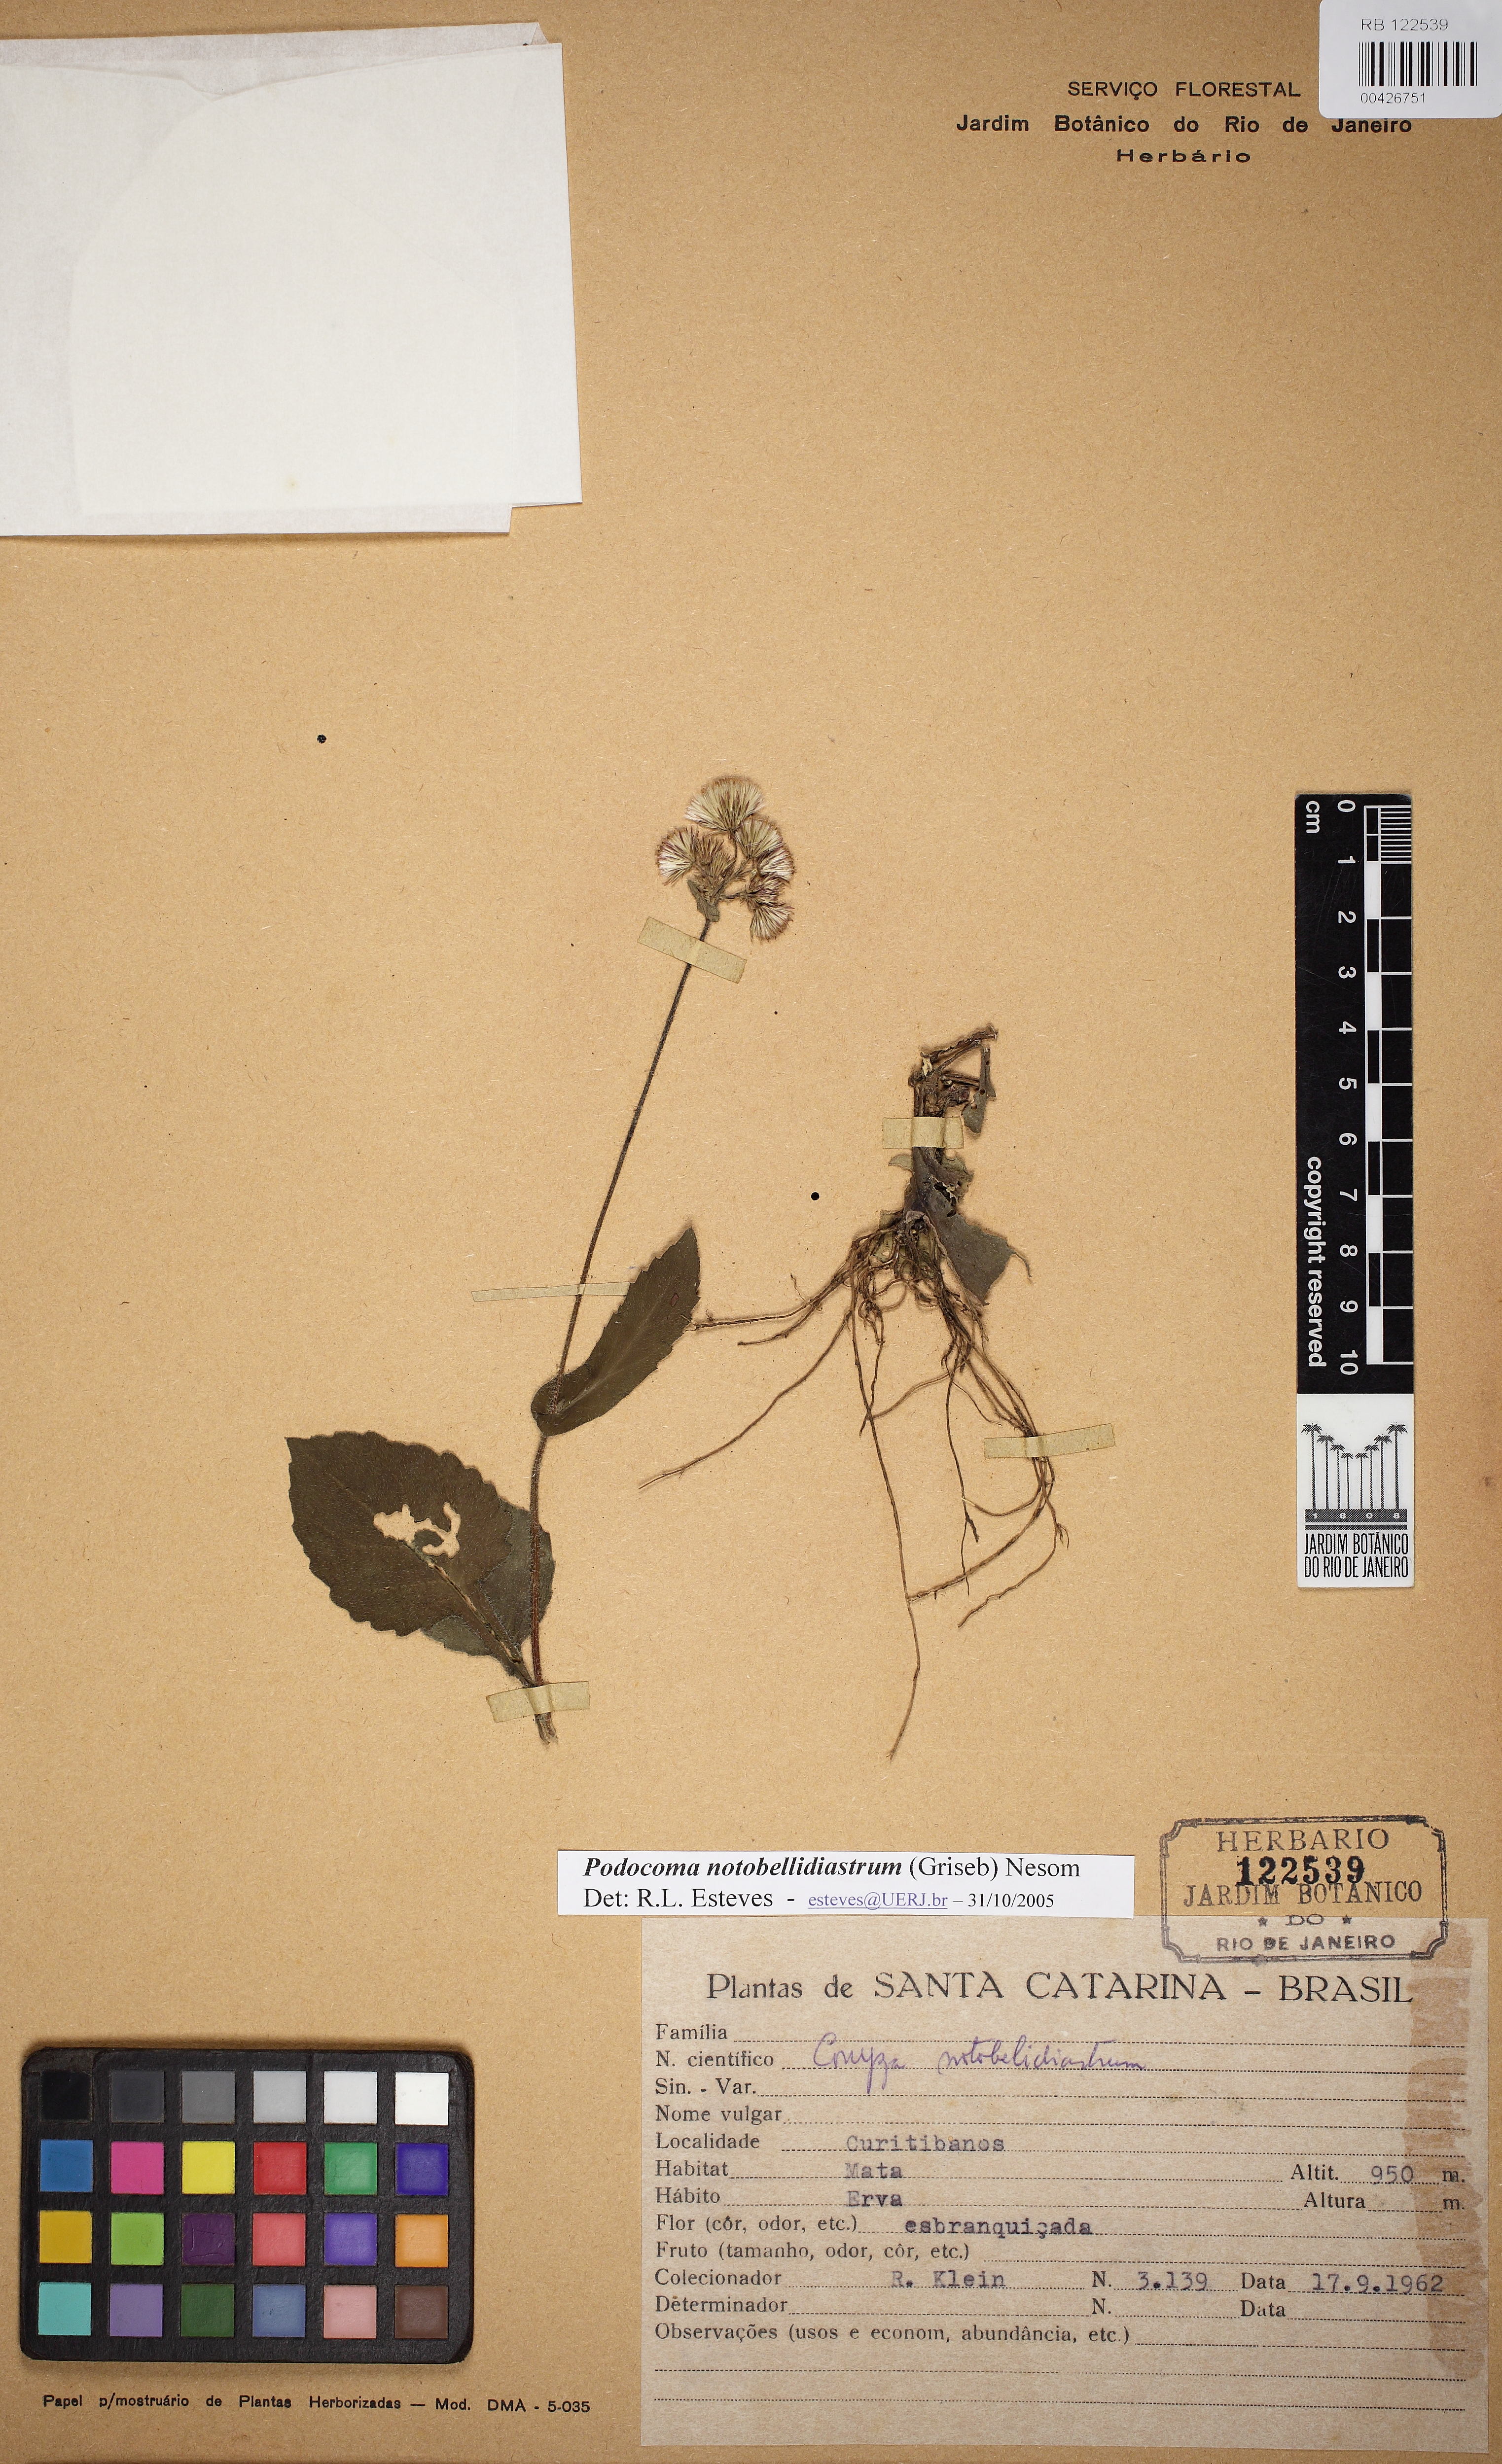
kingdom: Plantae
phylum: Tracheophyta
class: Magnoliopsida
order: Asterales
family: Asteraceae
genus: Exostigma
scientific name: Exostigma notobellidiastrum
